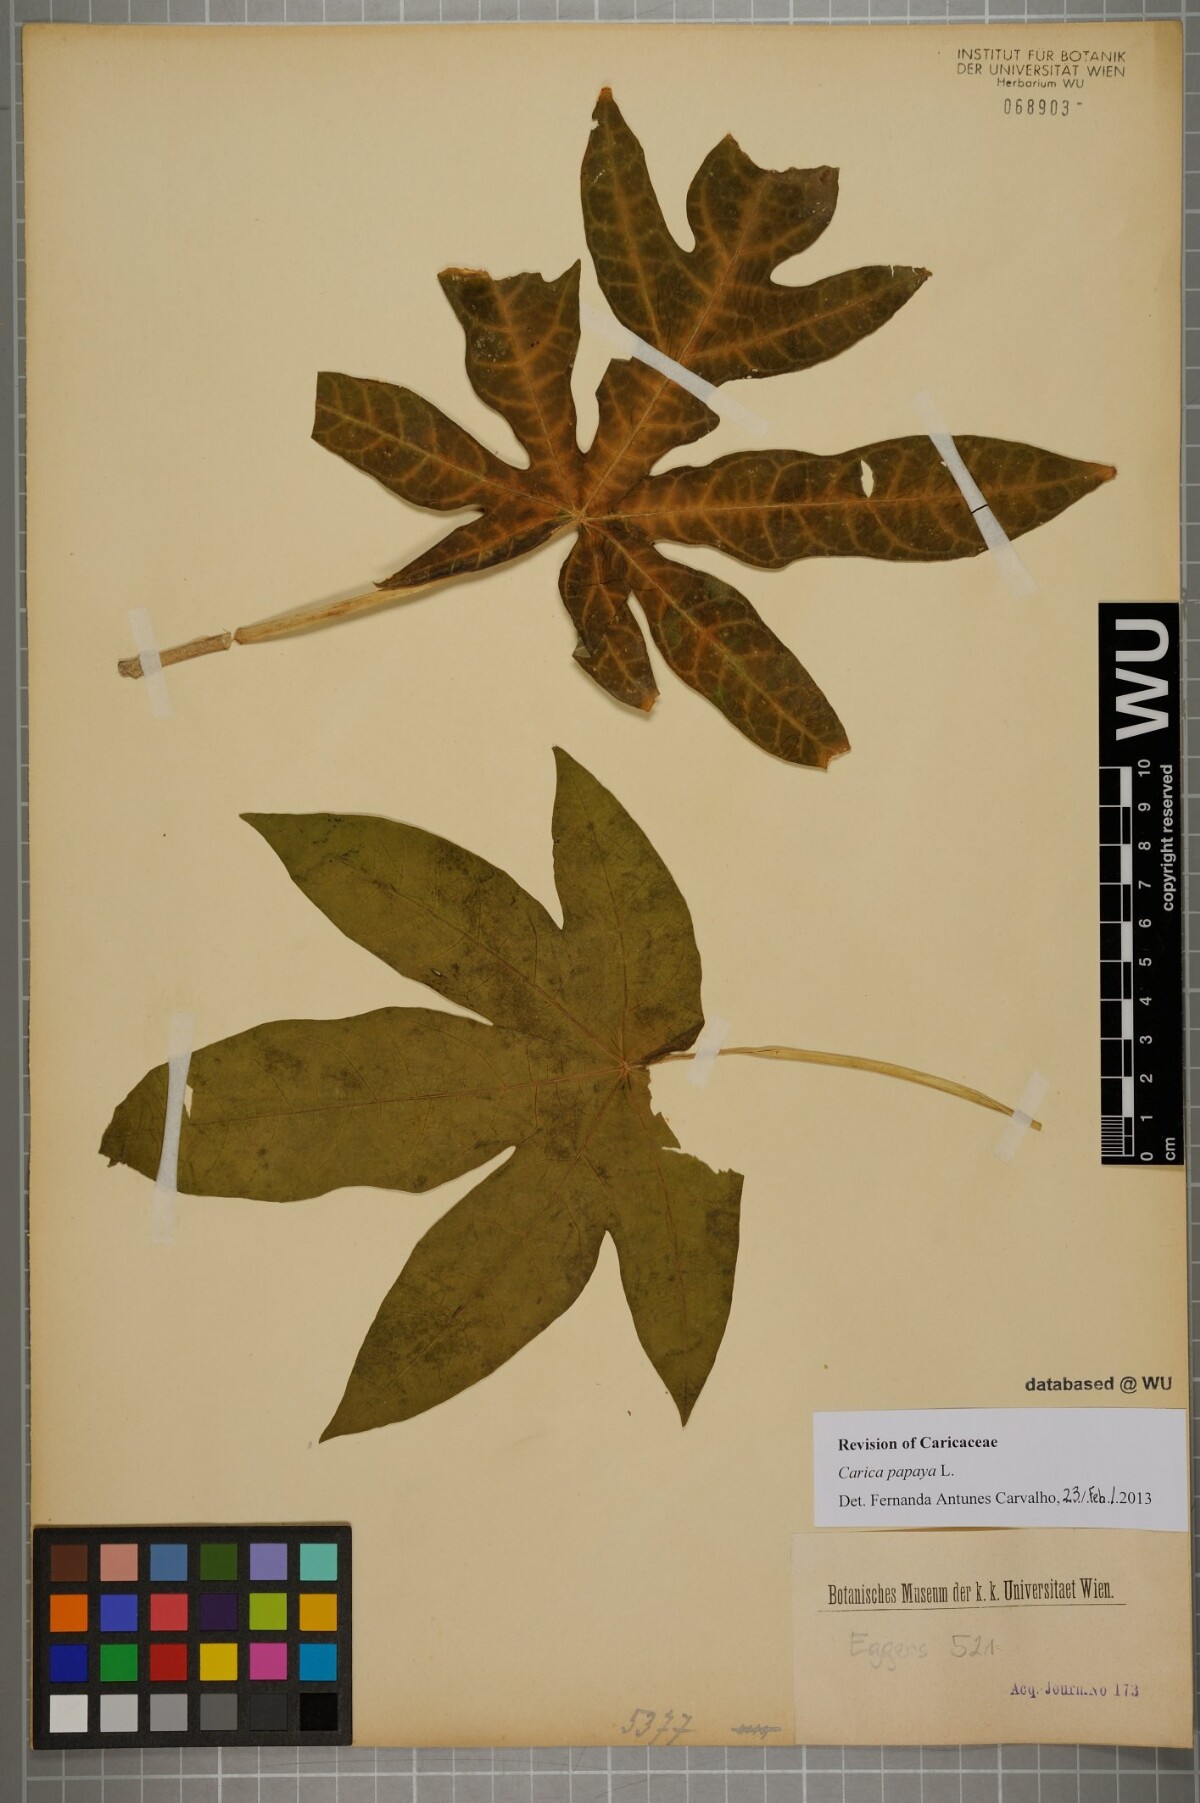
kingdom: Plantae
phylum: Tracheophyta
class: Magnoliopsida
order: Brassicales
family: Caricaceae
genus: Carica
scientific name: Carica papaya
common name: Papaya
